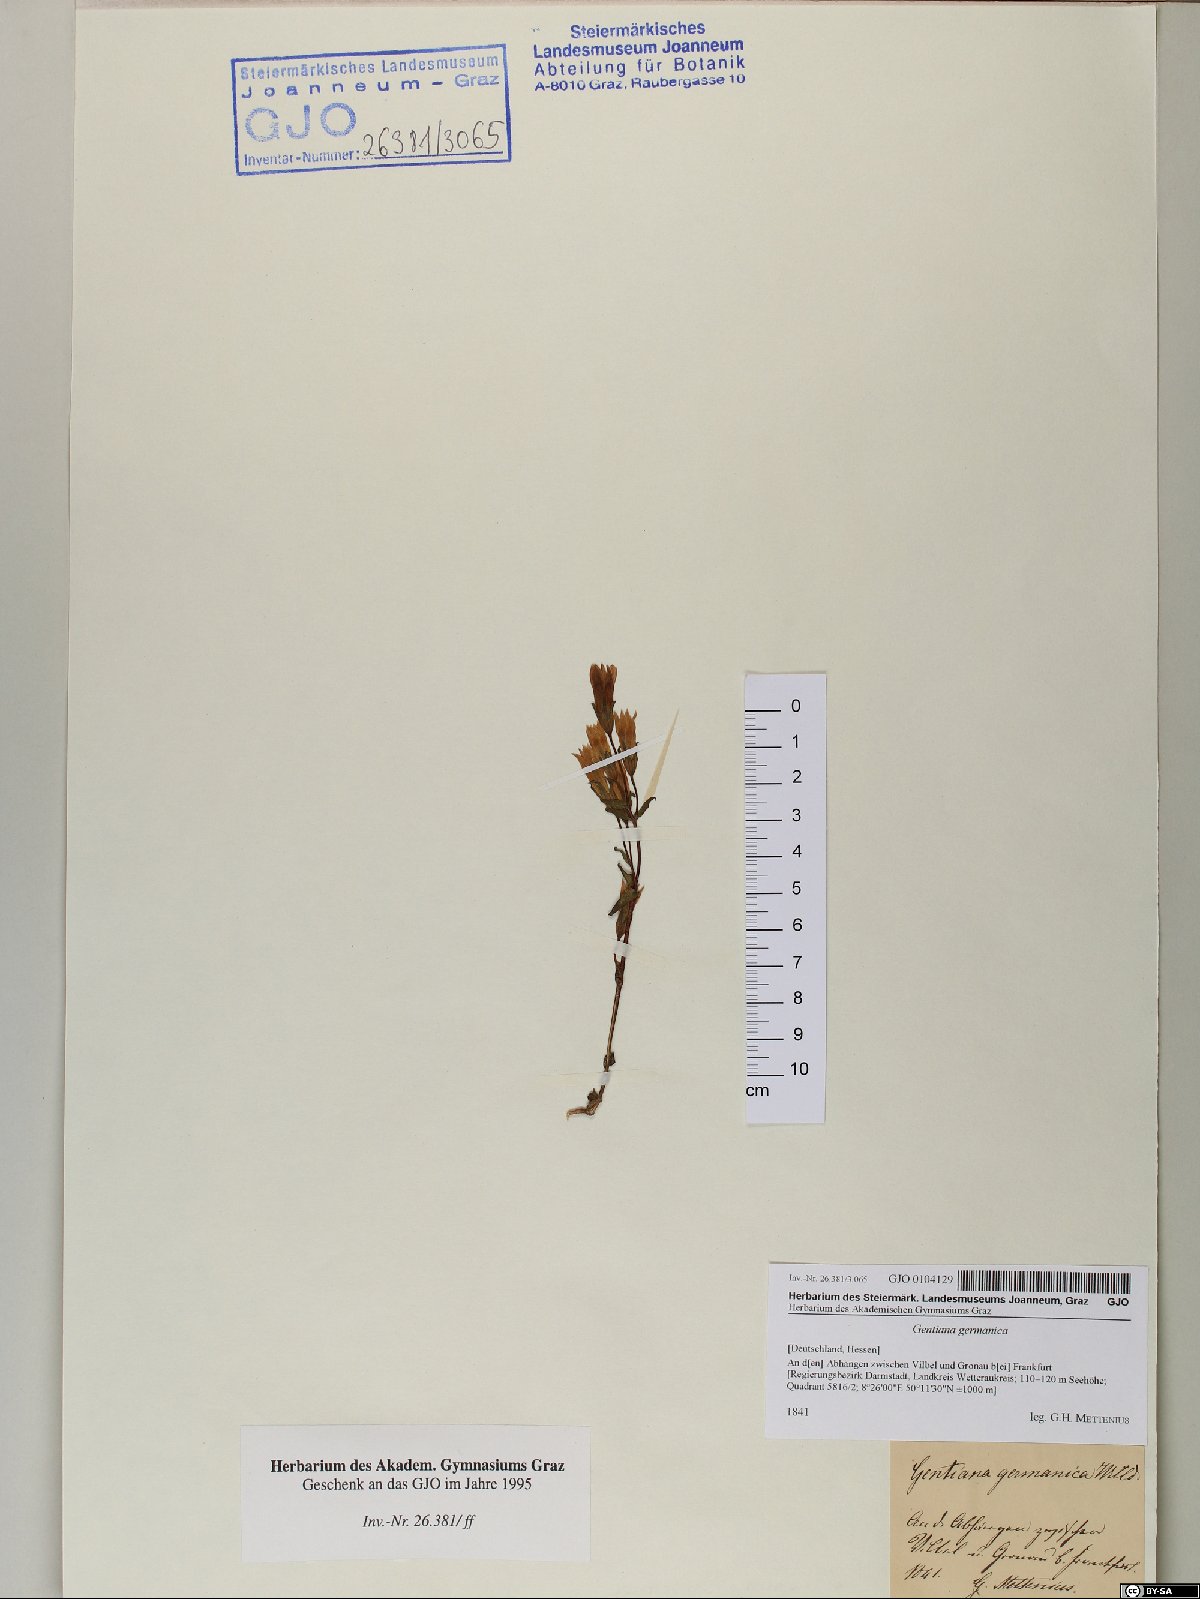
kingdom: Plantae
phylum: Tracheophyta
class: Magnoliopsida
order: Gentianales
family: Gentianaceae
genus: Gentianella
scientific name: Gentianella germanica
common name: Chiltern-gentian
